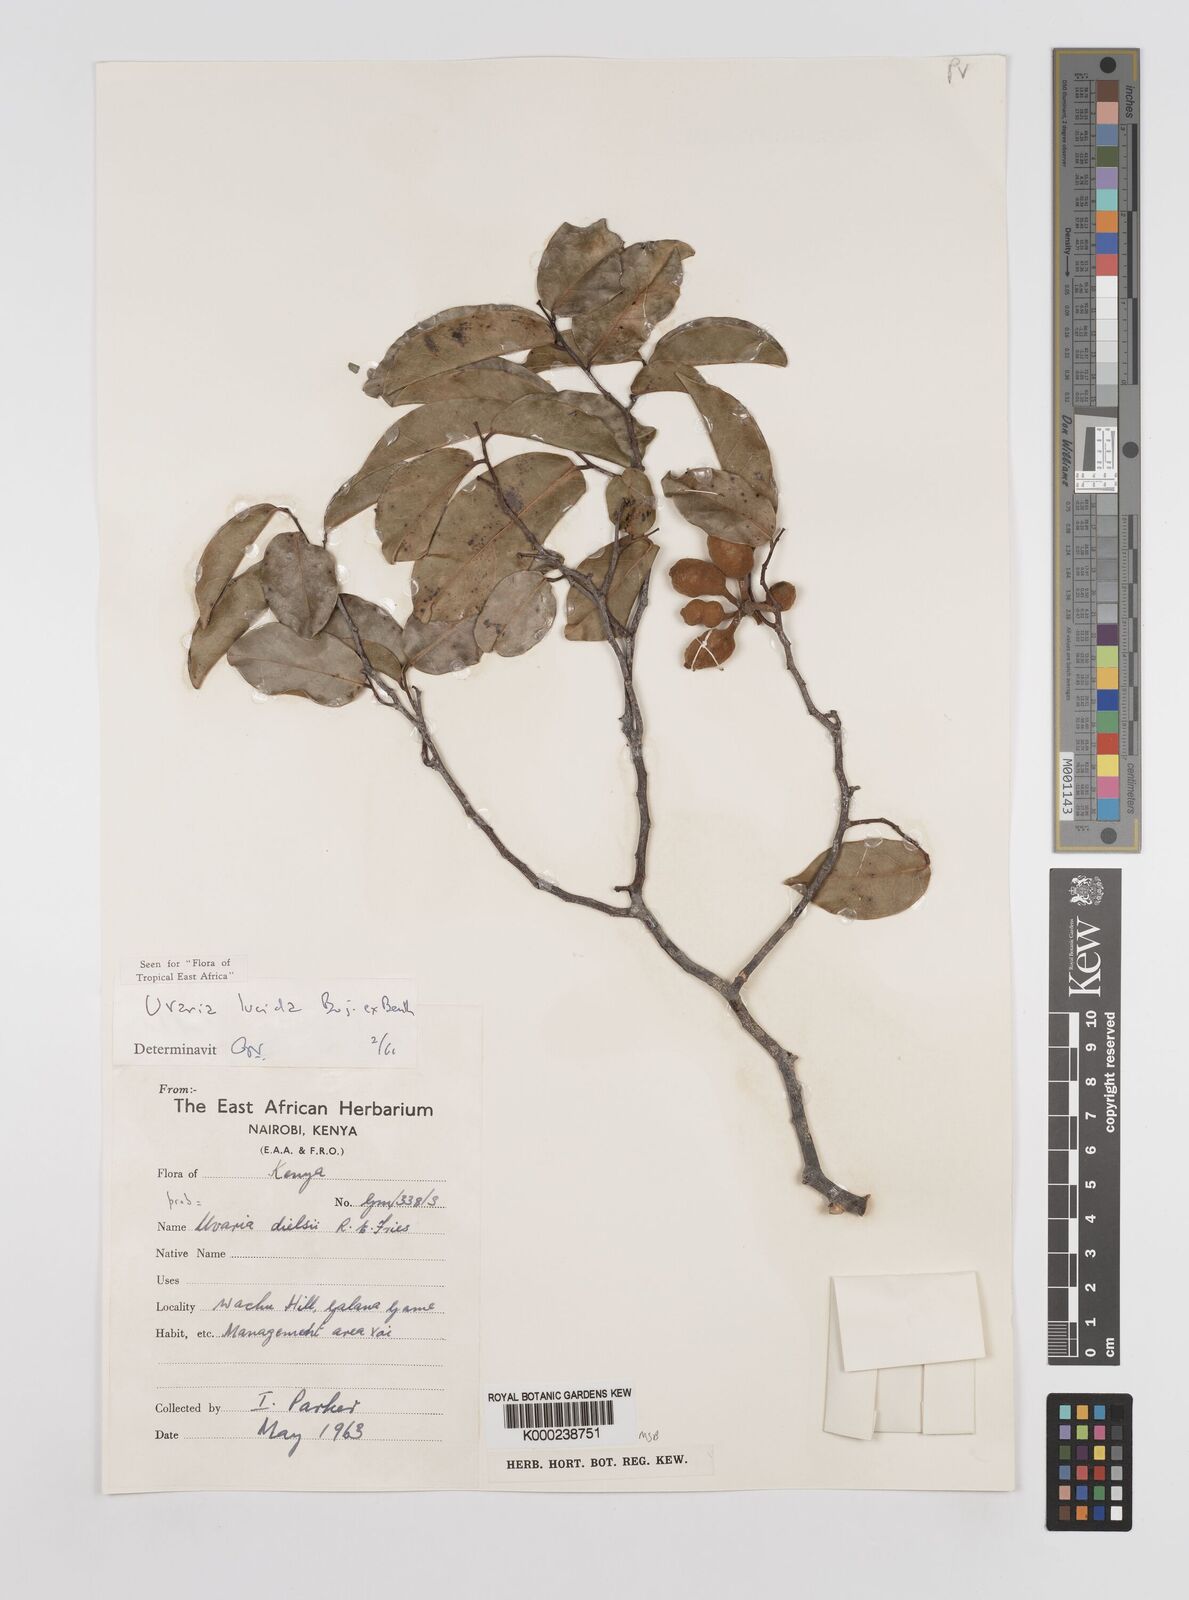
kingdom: Plantae
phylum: Tracheophyta
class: Magnoliopsida
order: Magnoliales
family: Annonaceae
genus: Uvaria
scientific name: Uvaria lucida
